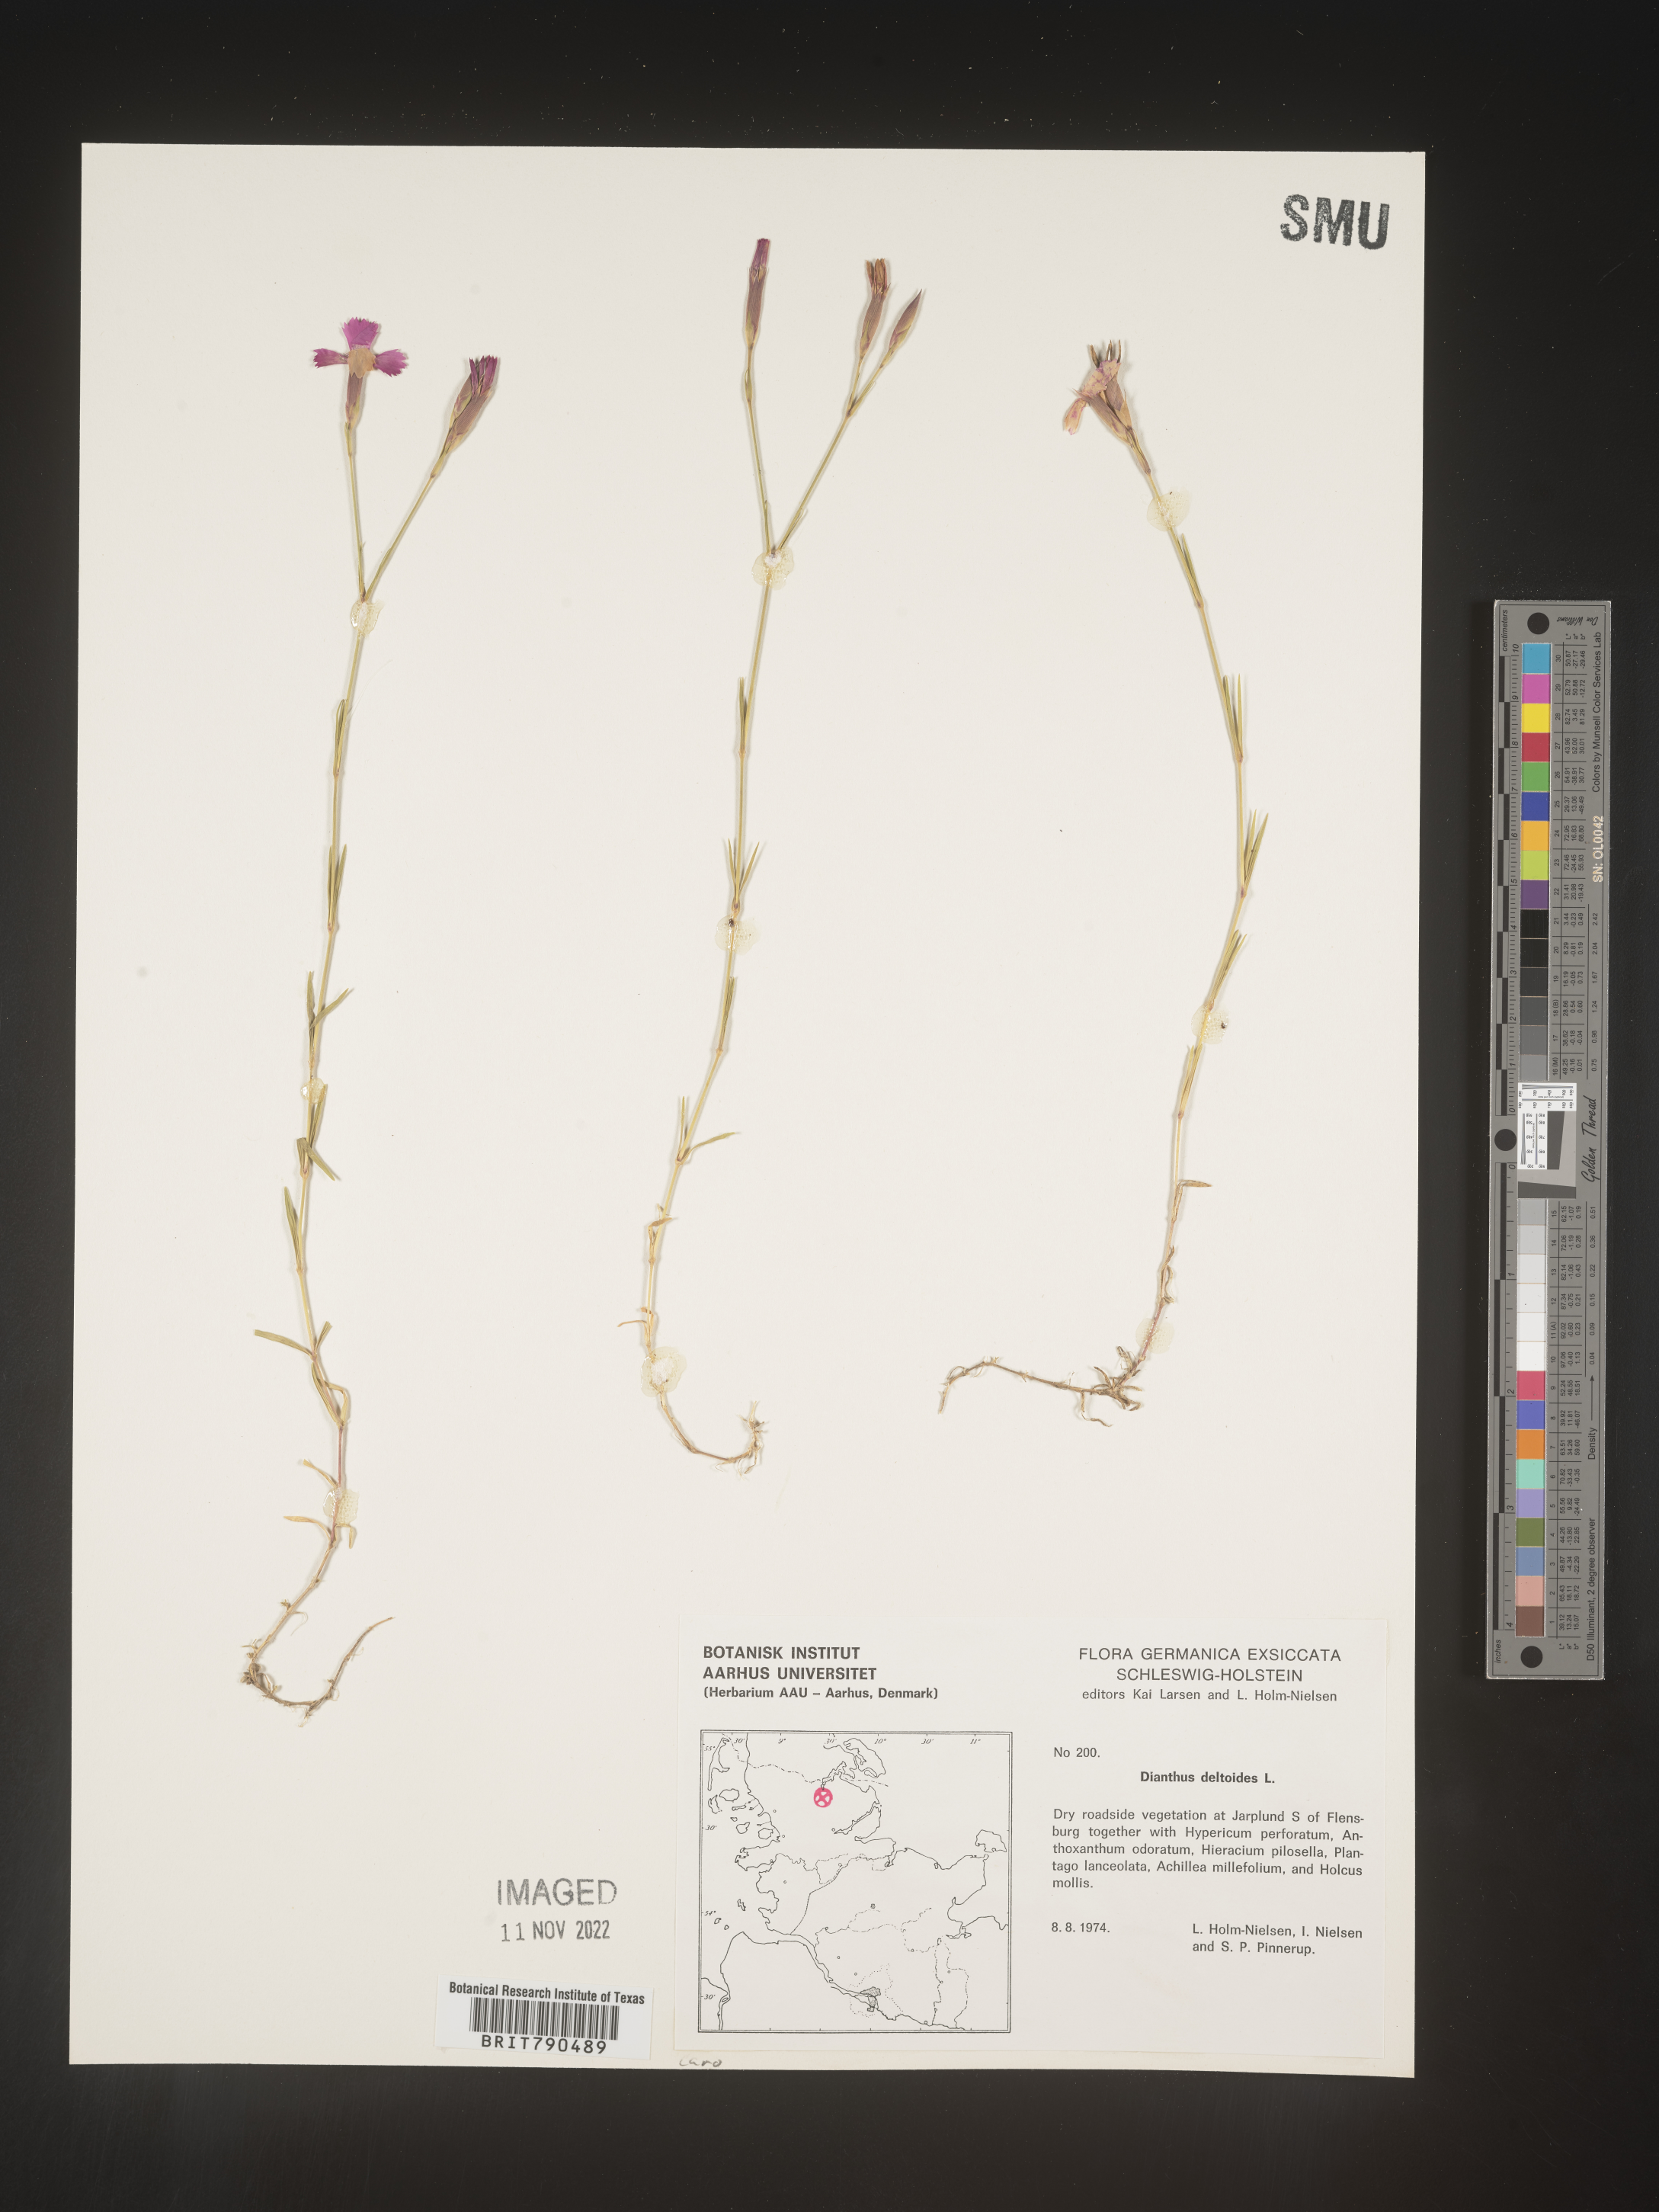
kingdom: Plantae
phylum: Tracheophyta
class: Magnoliopsida
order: Caryophyllales
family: Caryophyllaceae
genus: Dianthus
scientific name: Dianthus deltoides
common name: Maiden pink
